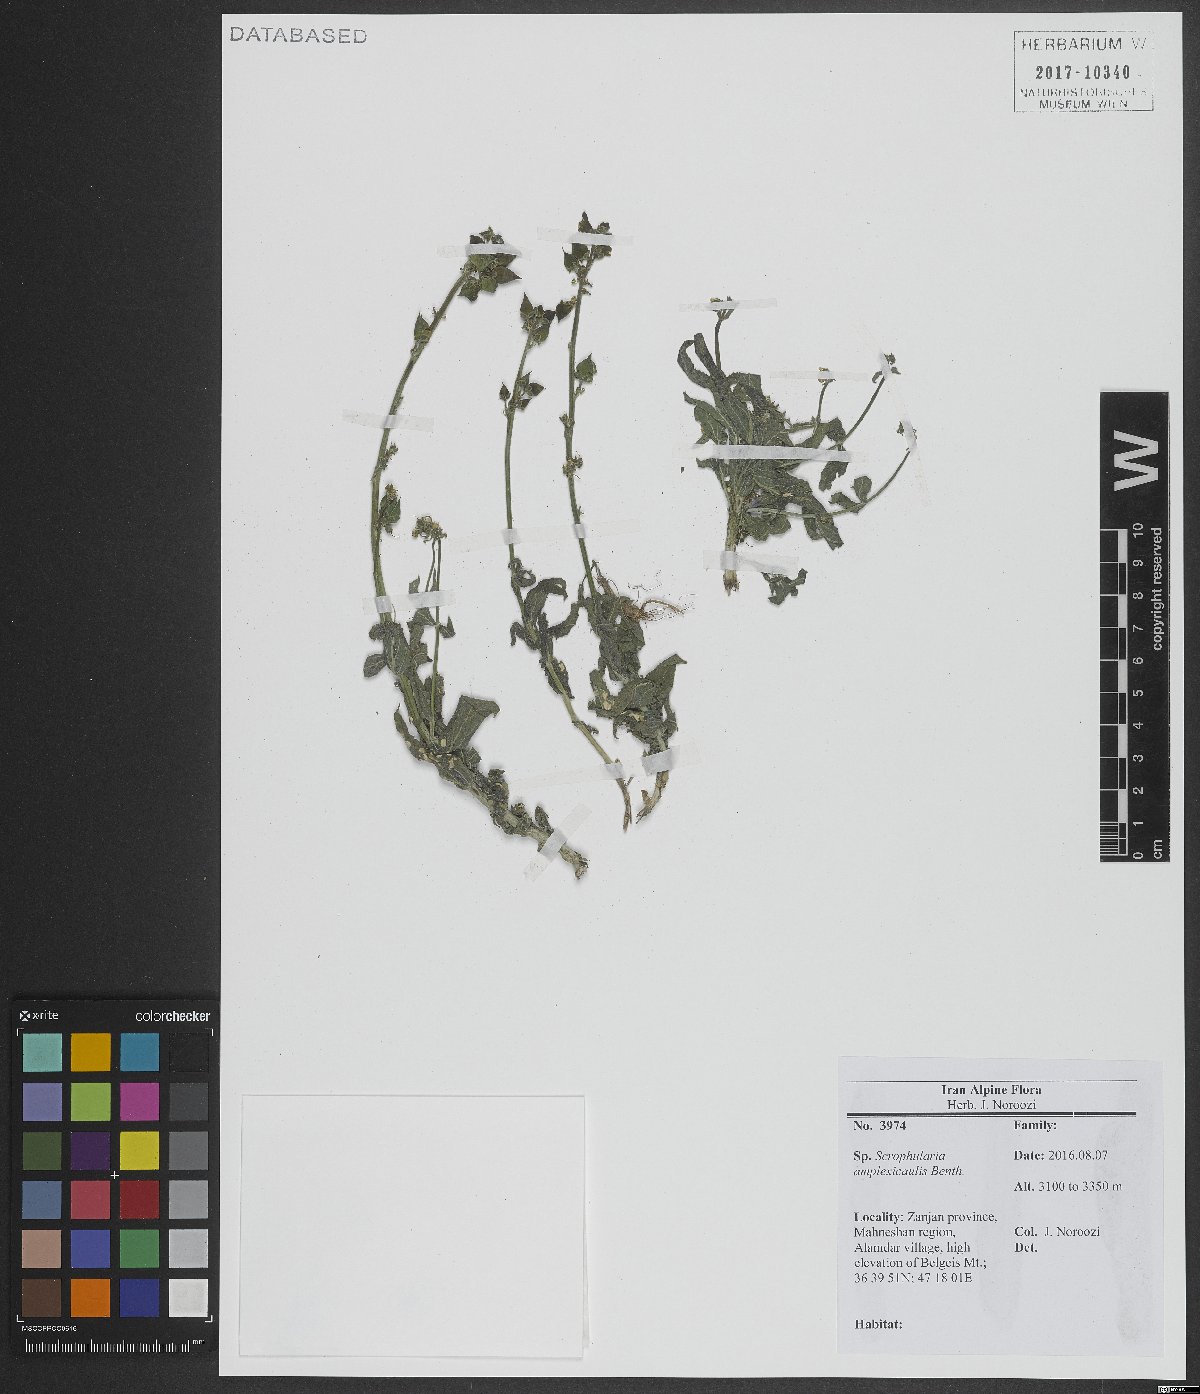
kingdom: Plantae
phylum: Tracheophyta
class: Magnoliopsida
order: Lamiales
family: Scrophulariaceae
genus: Scrophularia
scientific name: Scrophularia amplexicaulis
